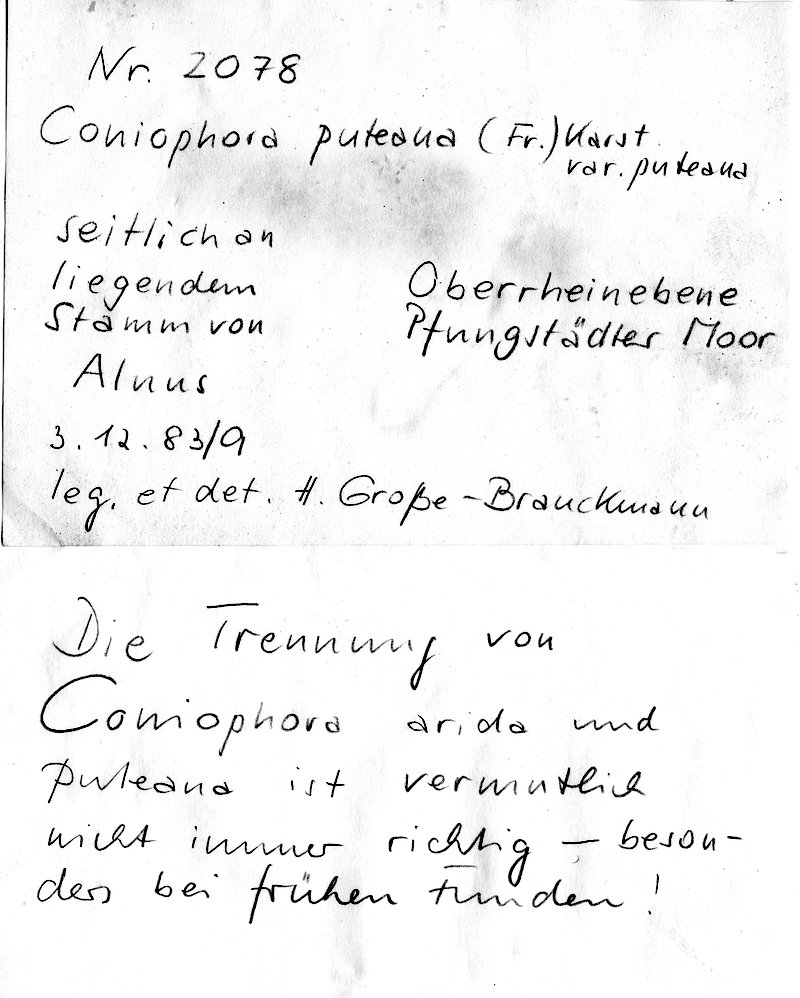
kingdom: Plantae
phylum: Tracheophyta
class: Magnoliopsida
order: Fagales
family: Betulaceae
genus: Alnus
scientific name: Alnus
